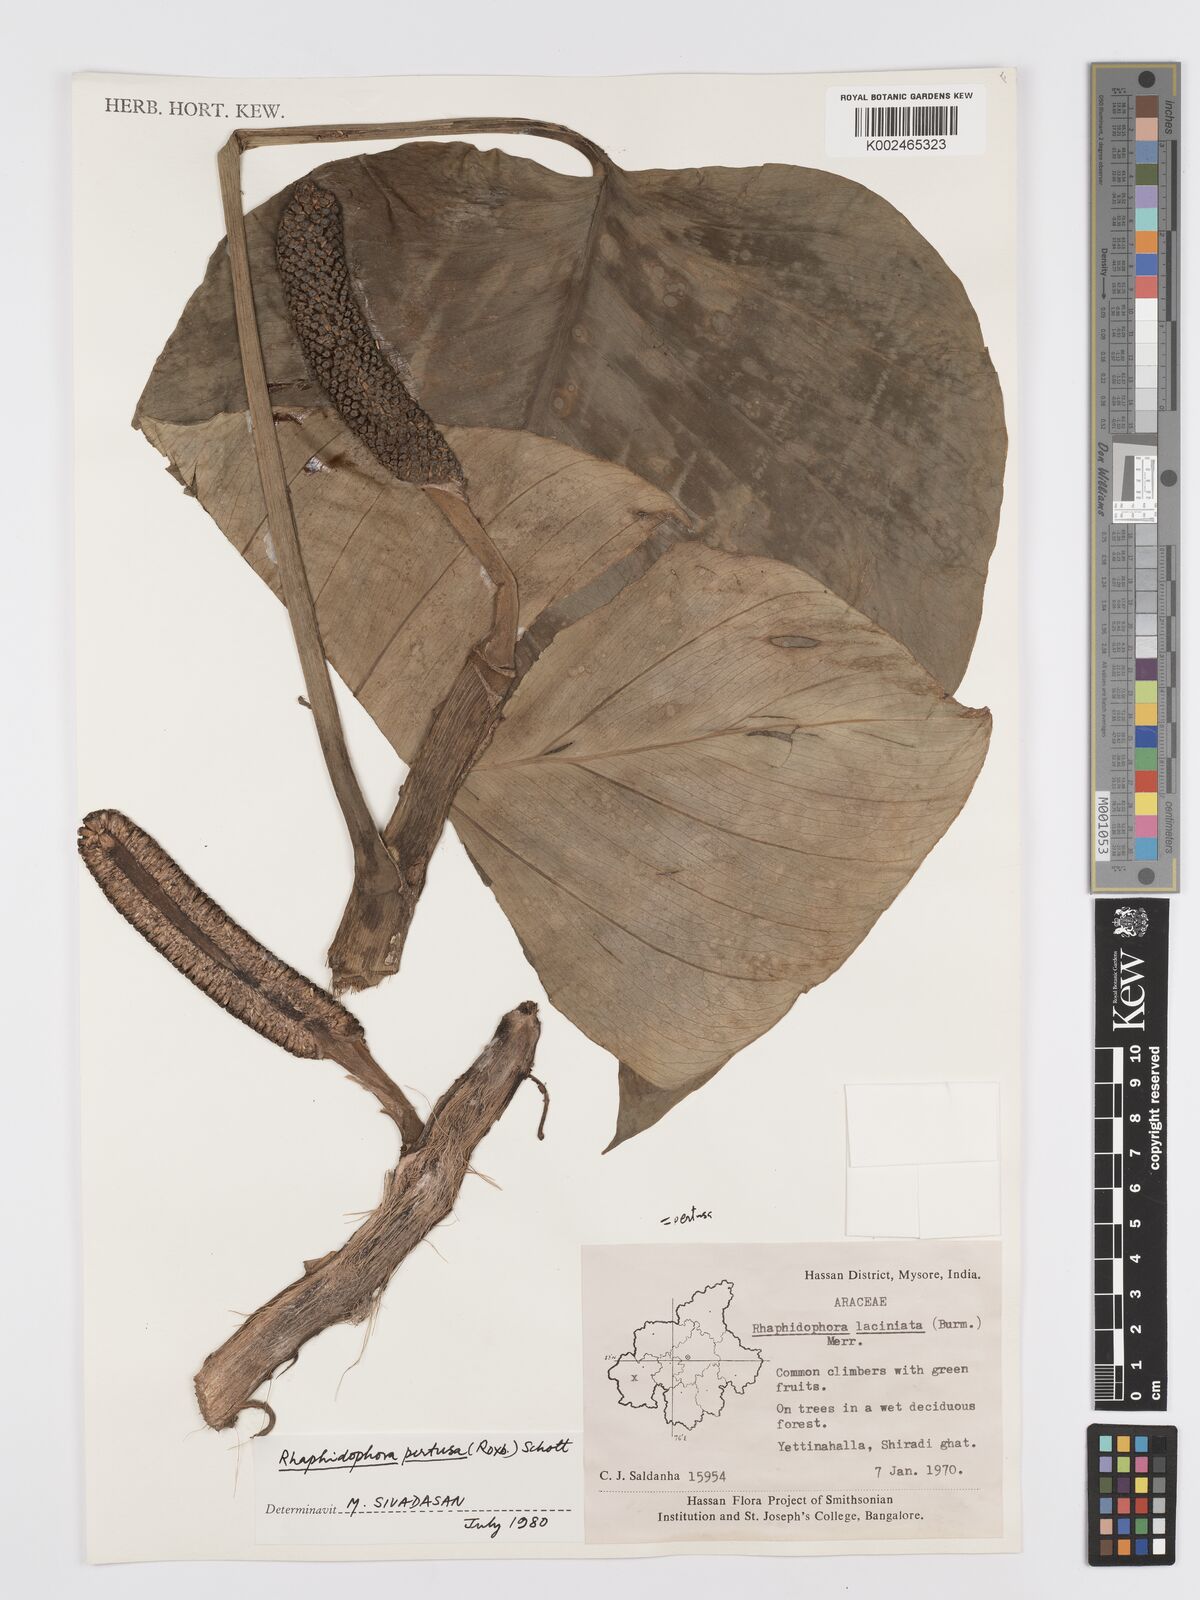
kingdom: Plantae
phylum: Tracheophyta
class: Liliopsida
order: Alismatales
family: Araceae
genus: Rhaphidophora
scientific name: Rhaphidophora pertusa
